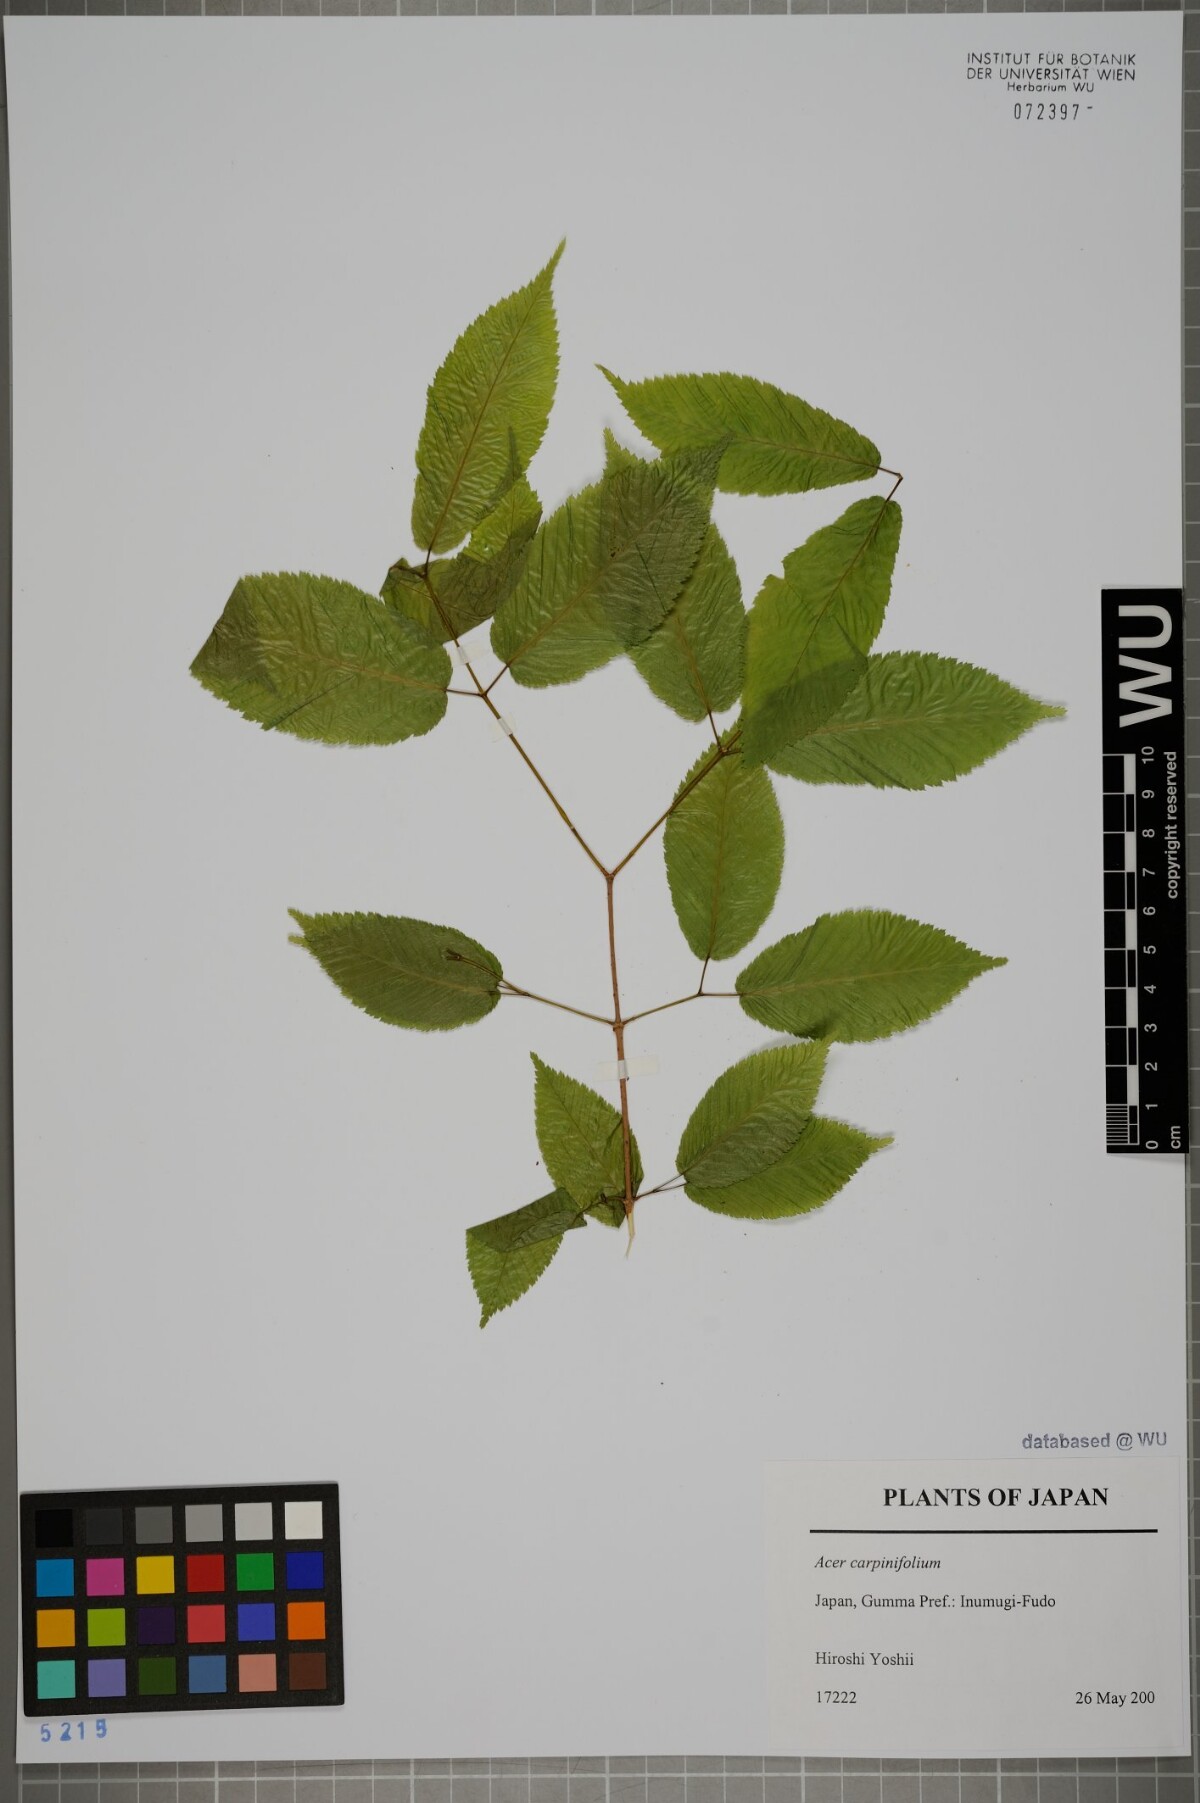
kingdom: Plantae
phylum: Tracheophyta
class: Magnoliopsida
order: Sapindales
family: Sapindaceae
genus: Acer
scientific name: Acer carpinifolium
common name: Hornbeam maple
